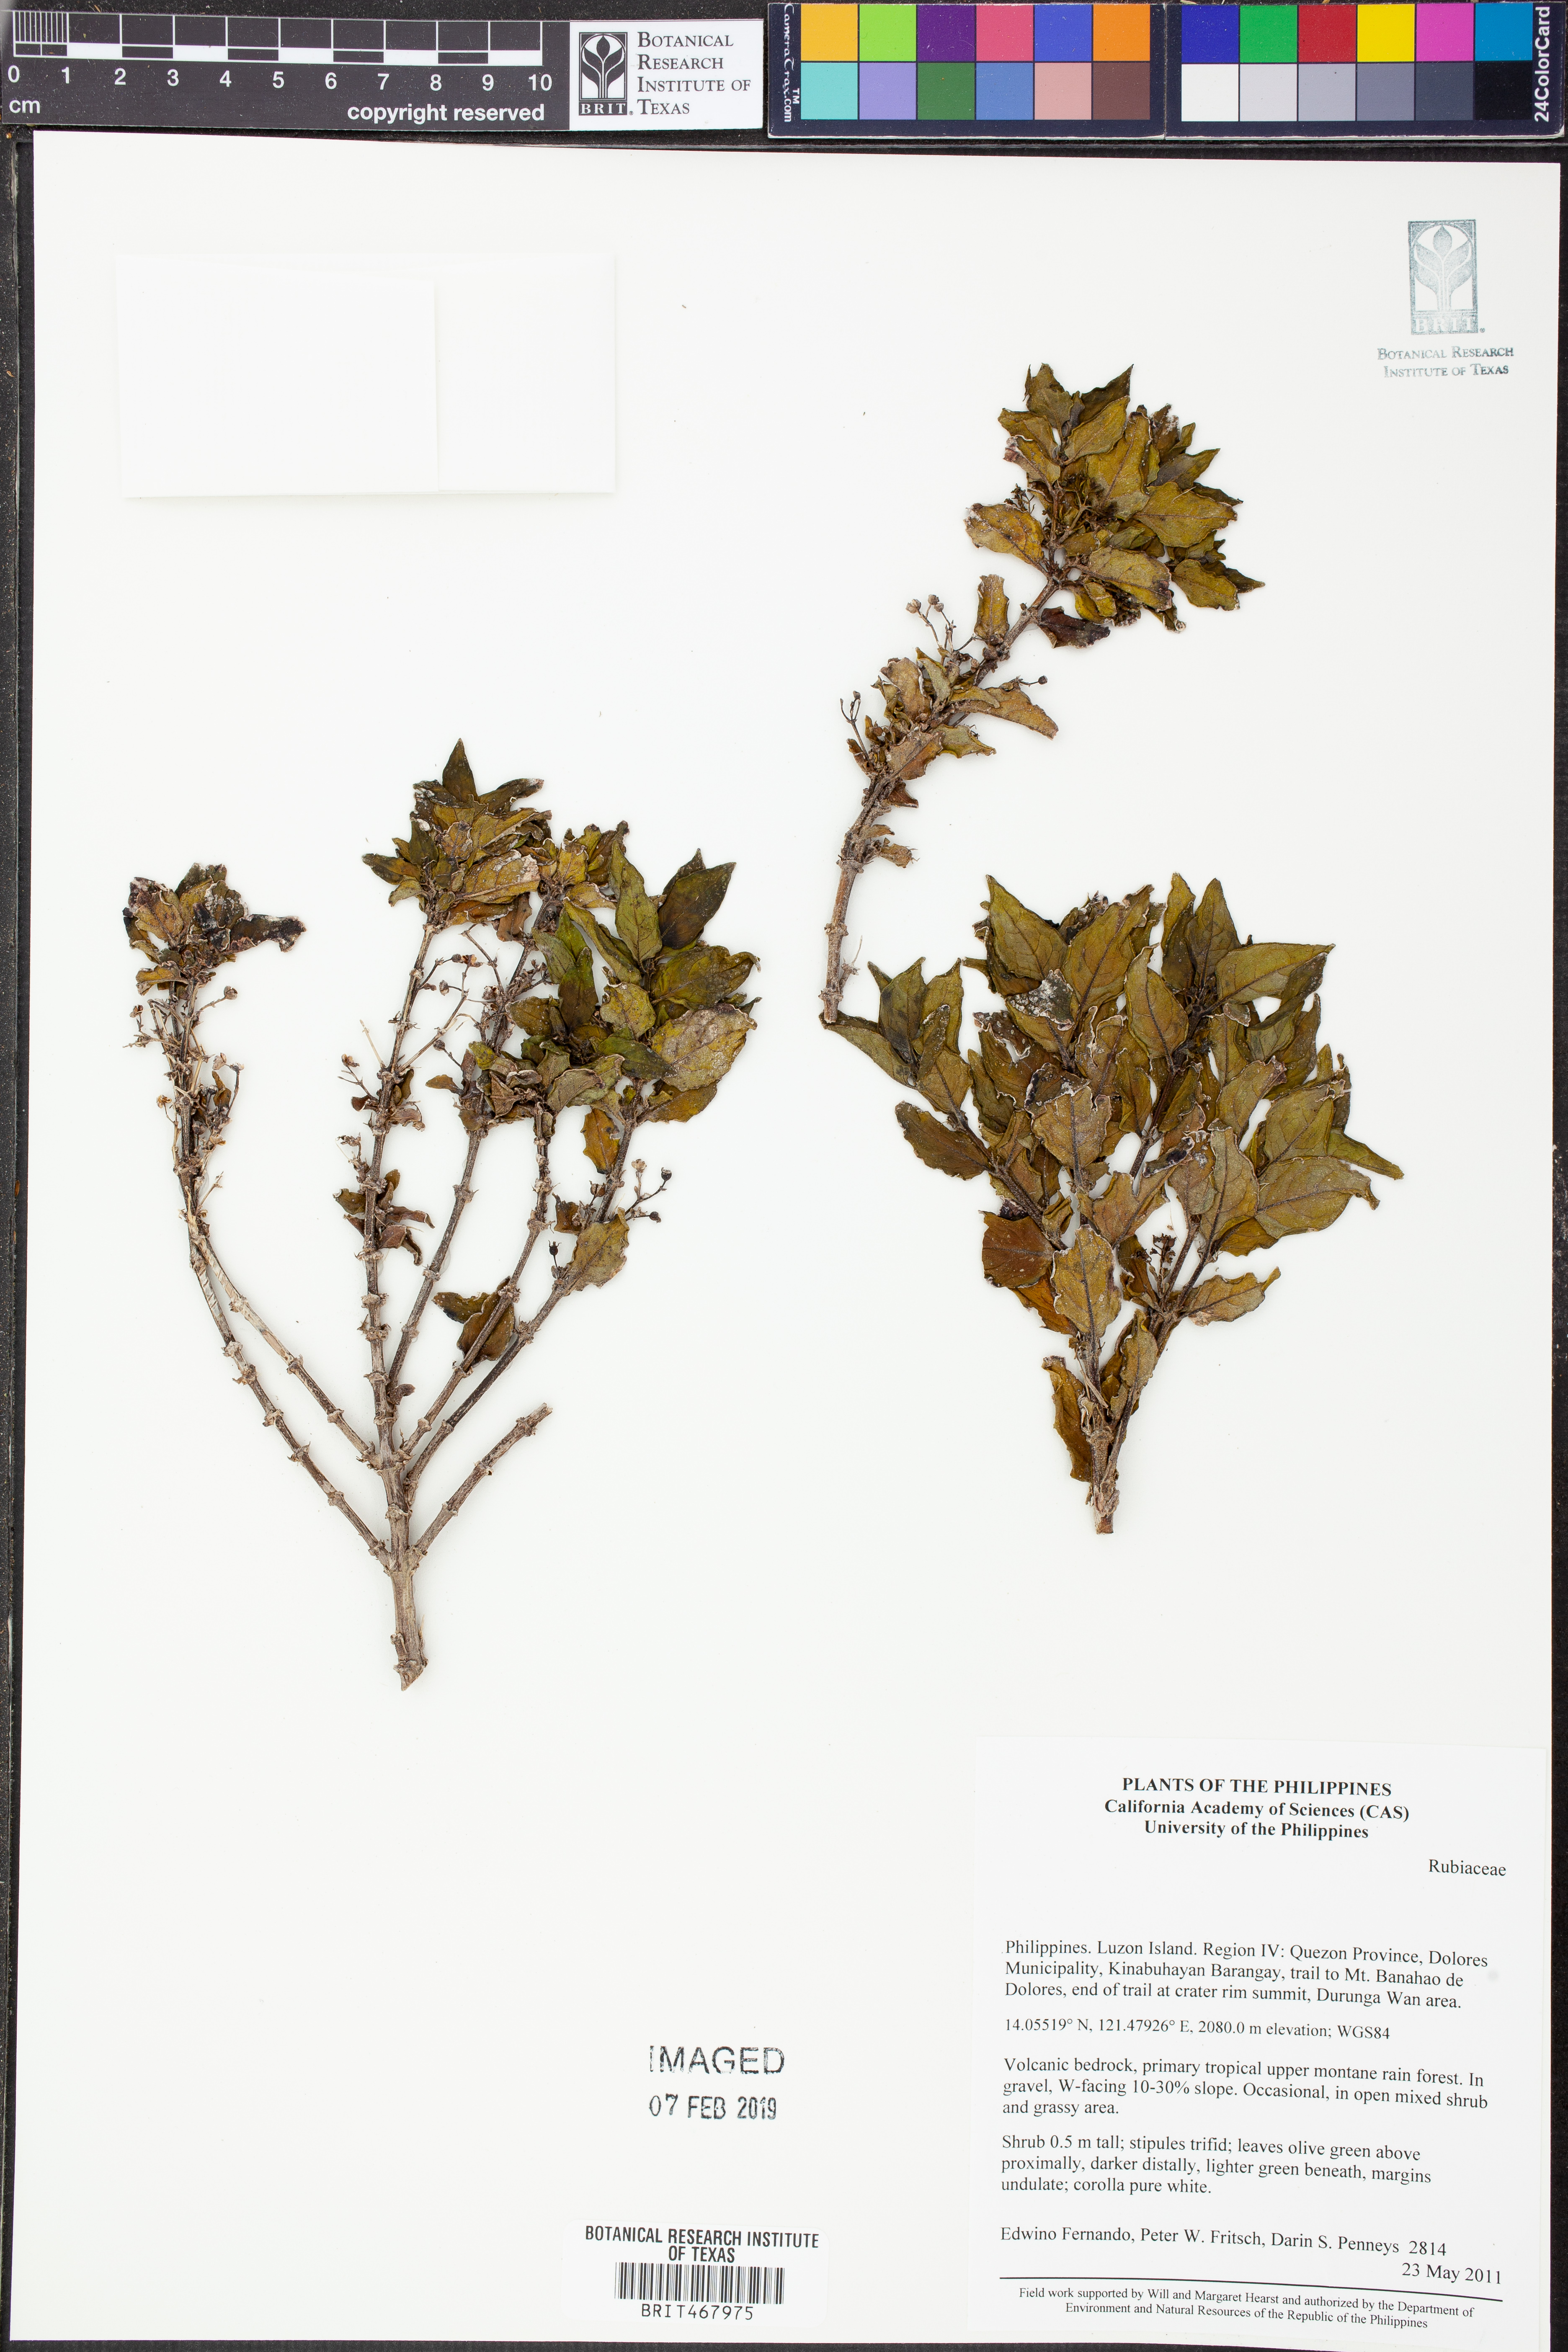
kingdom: Plantae
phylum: Tracheophyta
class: Magnoliopsida
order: Gentianales
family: Rubiaceae
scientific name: Rubiaceae
